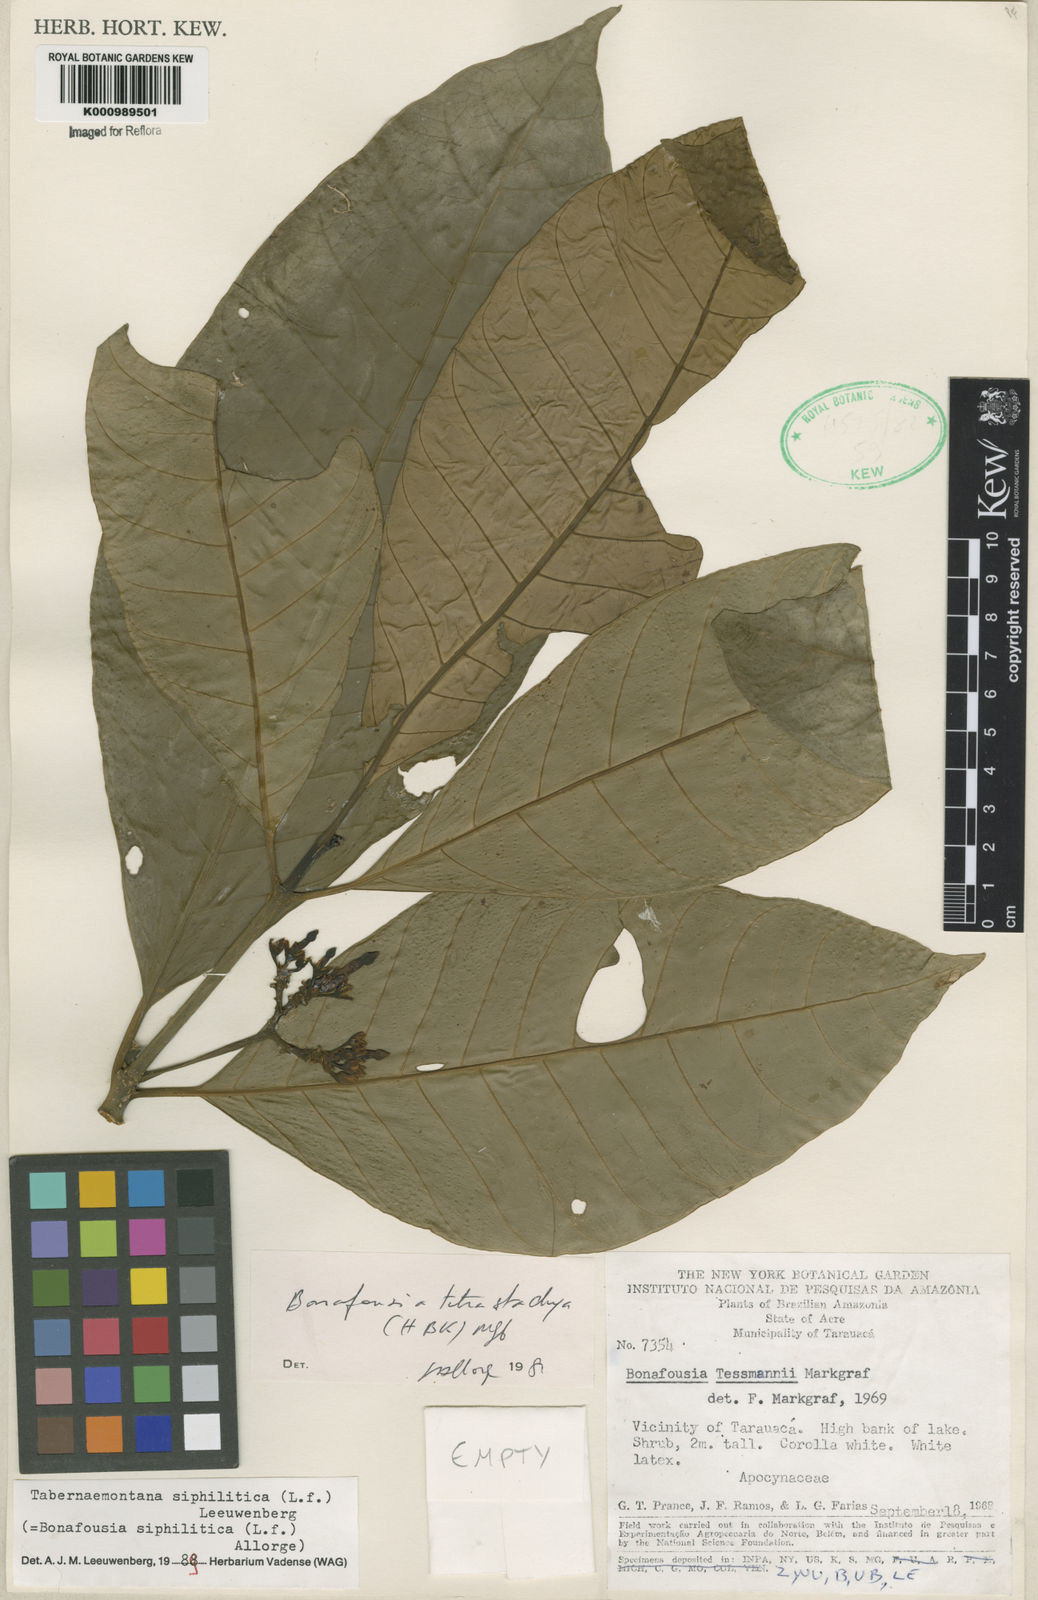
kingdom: Plantae
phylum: Tracheophyta
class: Magnoliopsida
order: Gentianales
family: Apocynaceae
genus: Tabernaemontana
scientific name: Tabernaemontana siphilitica
